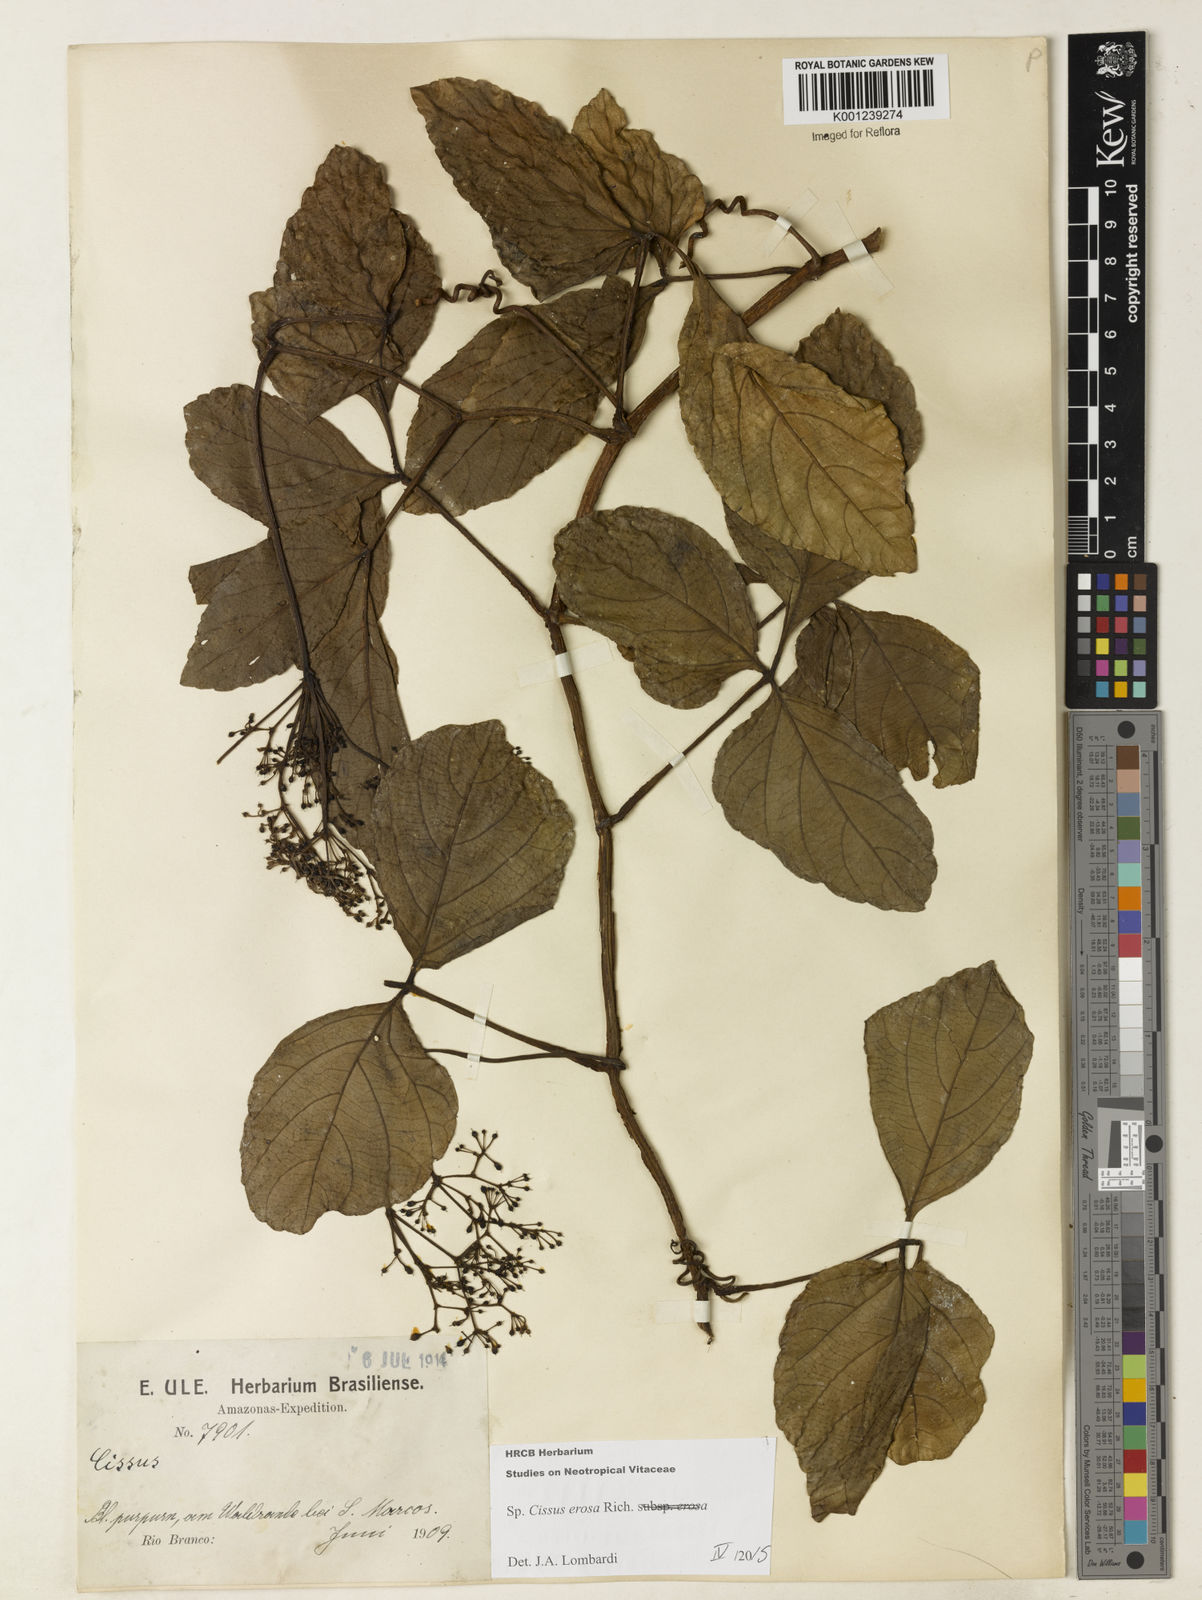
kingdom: Plantae
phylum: Tracheophyta
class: Magnoliopsida
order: Vitales
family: Vitaceae
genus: Cissus
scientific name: Cissus erosa
